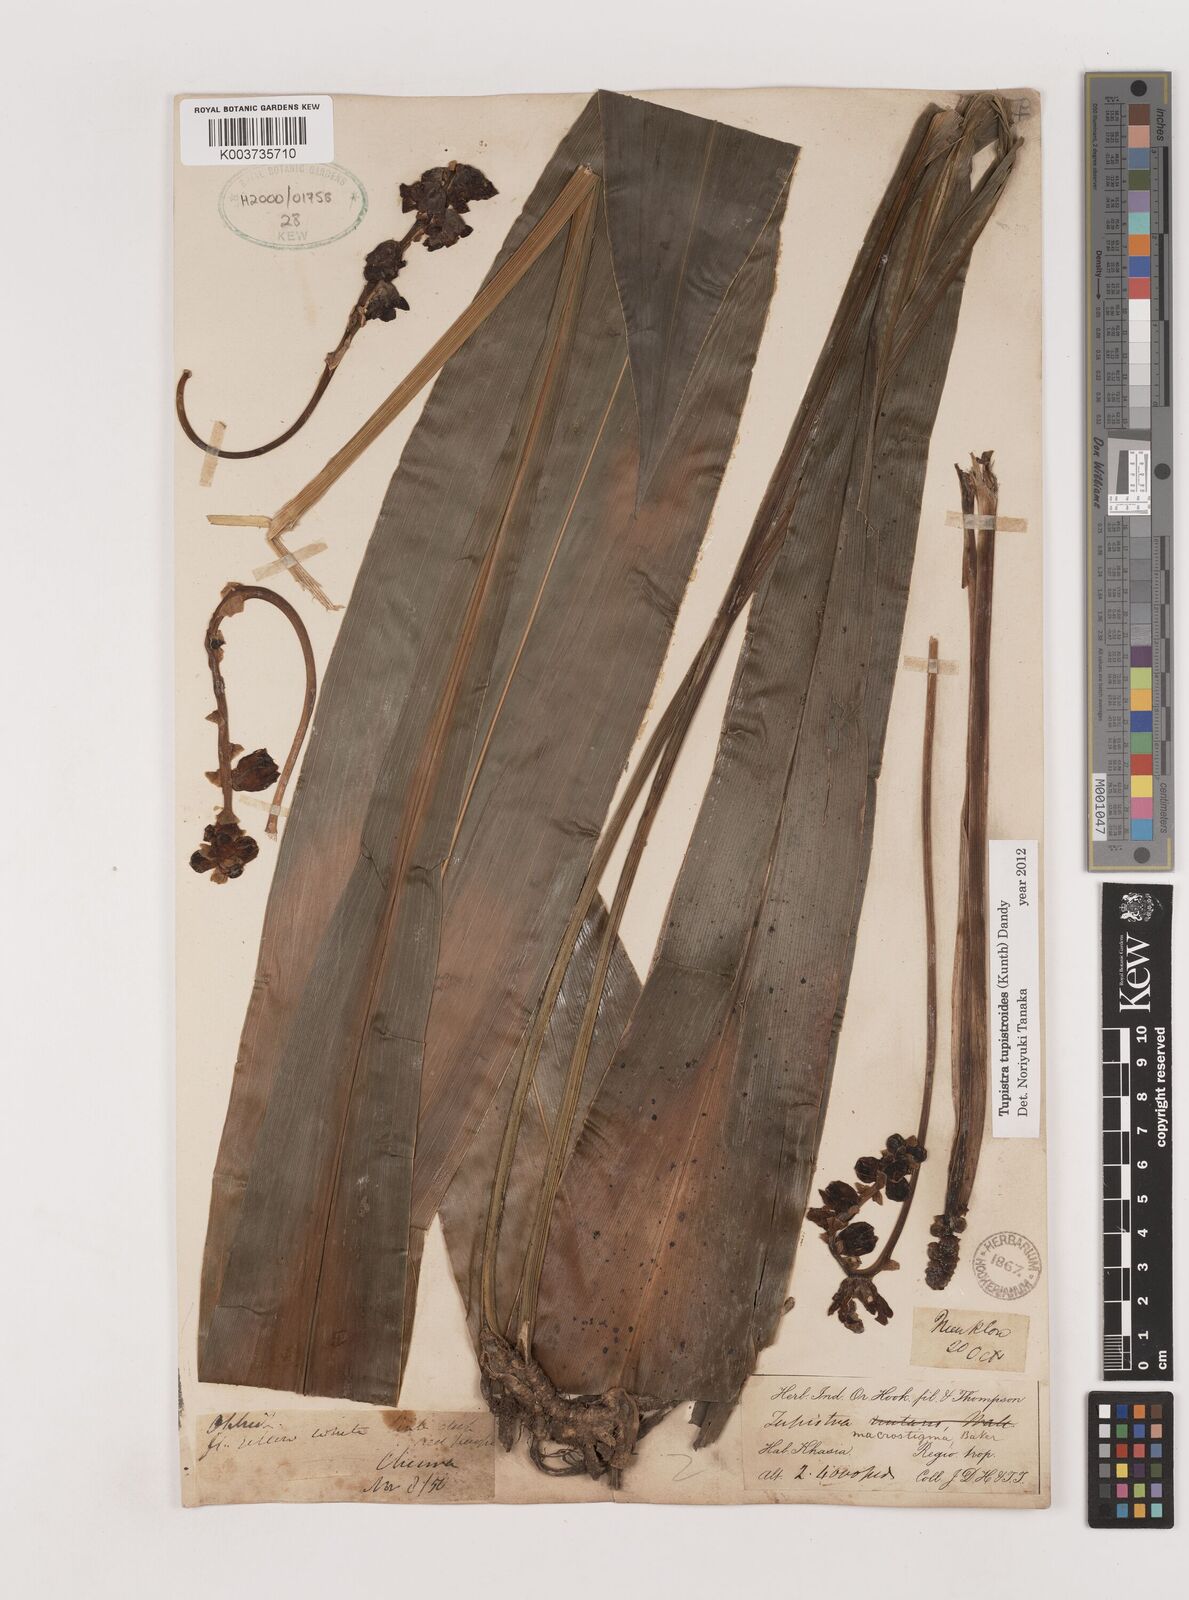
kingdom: Plantae
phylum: Tracheophyta
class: Liliopsida
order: Asparagales
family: Asparagaceae
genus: Tupistra
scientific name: Tupistra tupistroides
